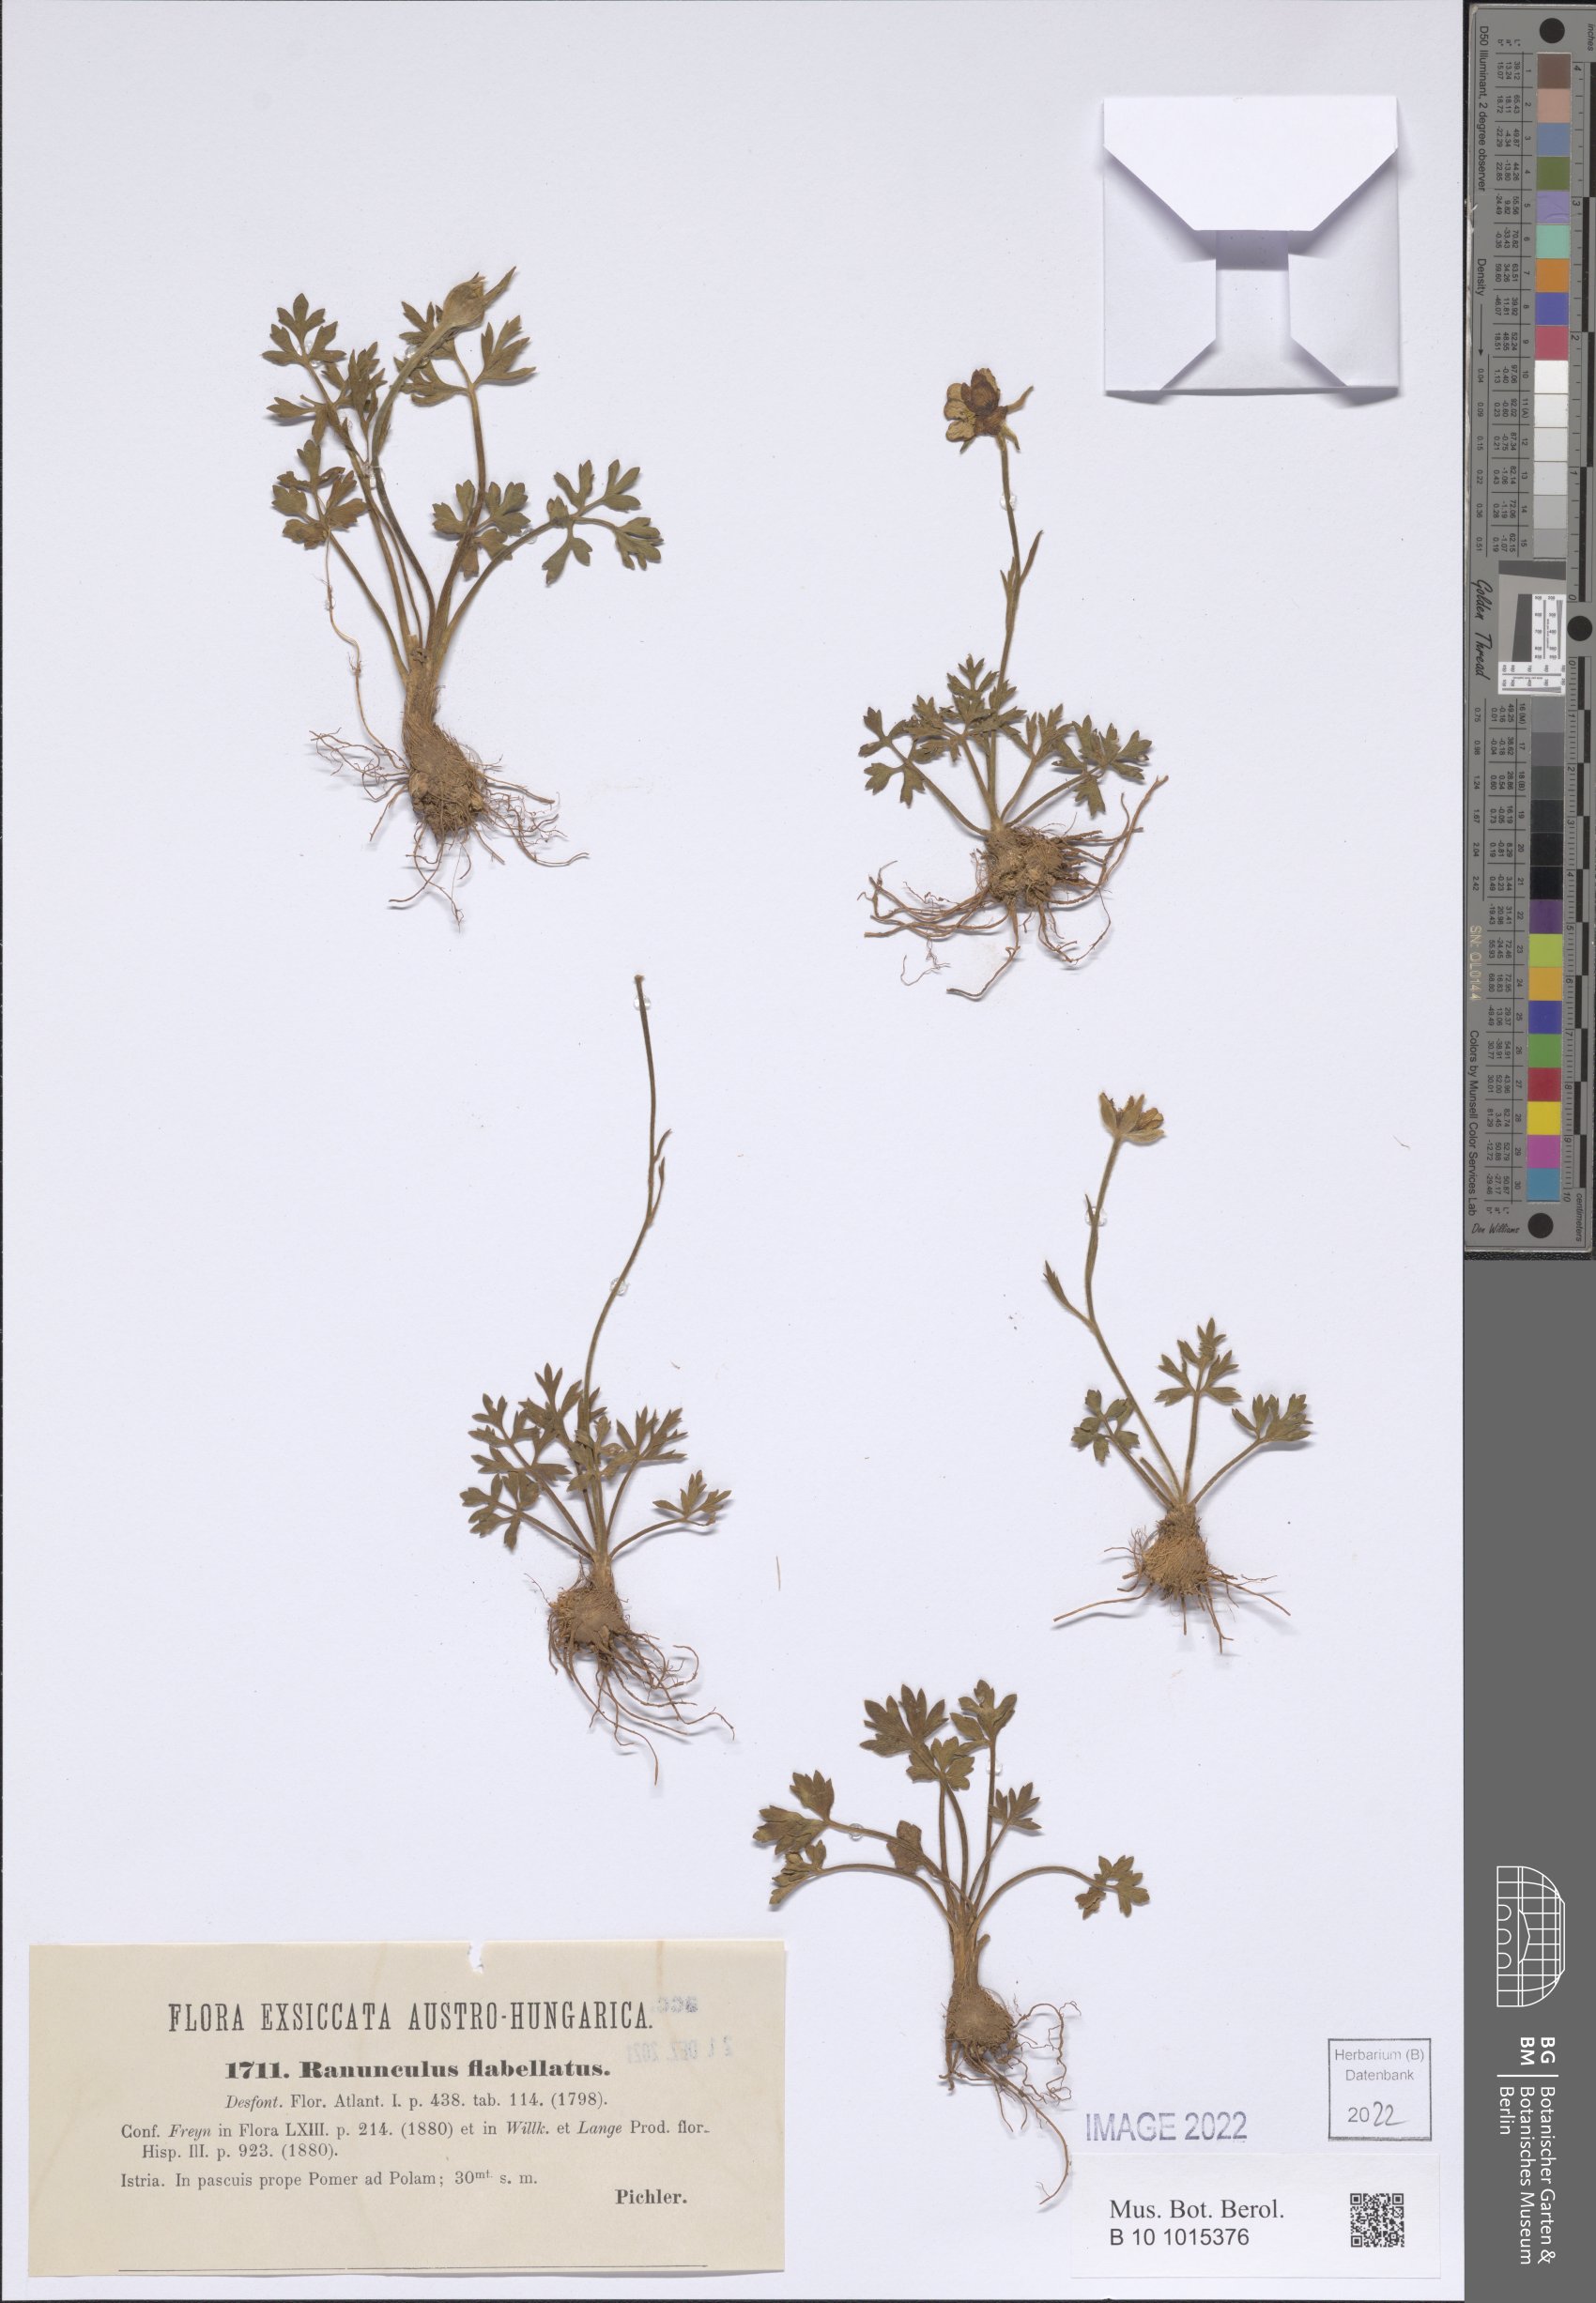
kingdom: Plantae
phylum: Tracheophyta
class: Magnoliopsida
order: Ranunculales
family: Ranunculaceae
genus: Ranunculus
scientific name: Ranunculus paludosus
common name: Jersey buttercup
